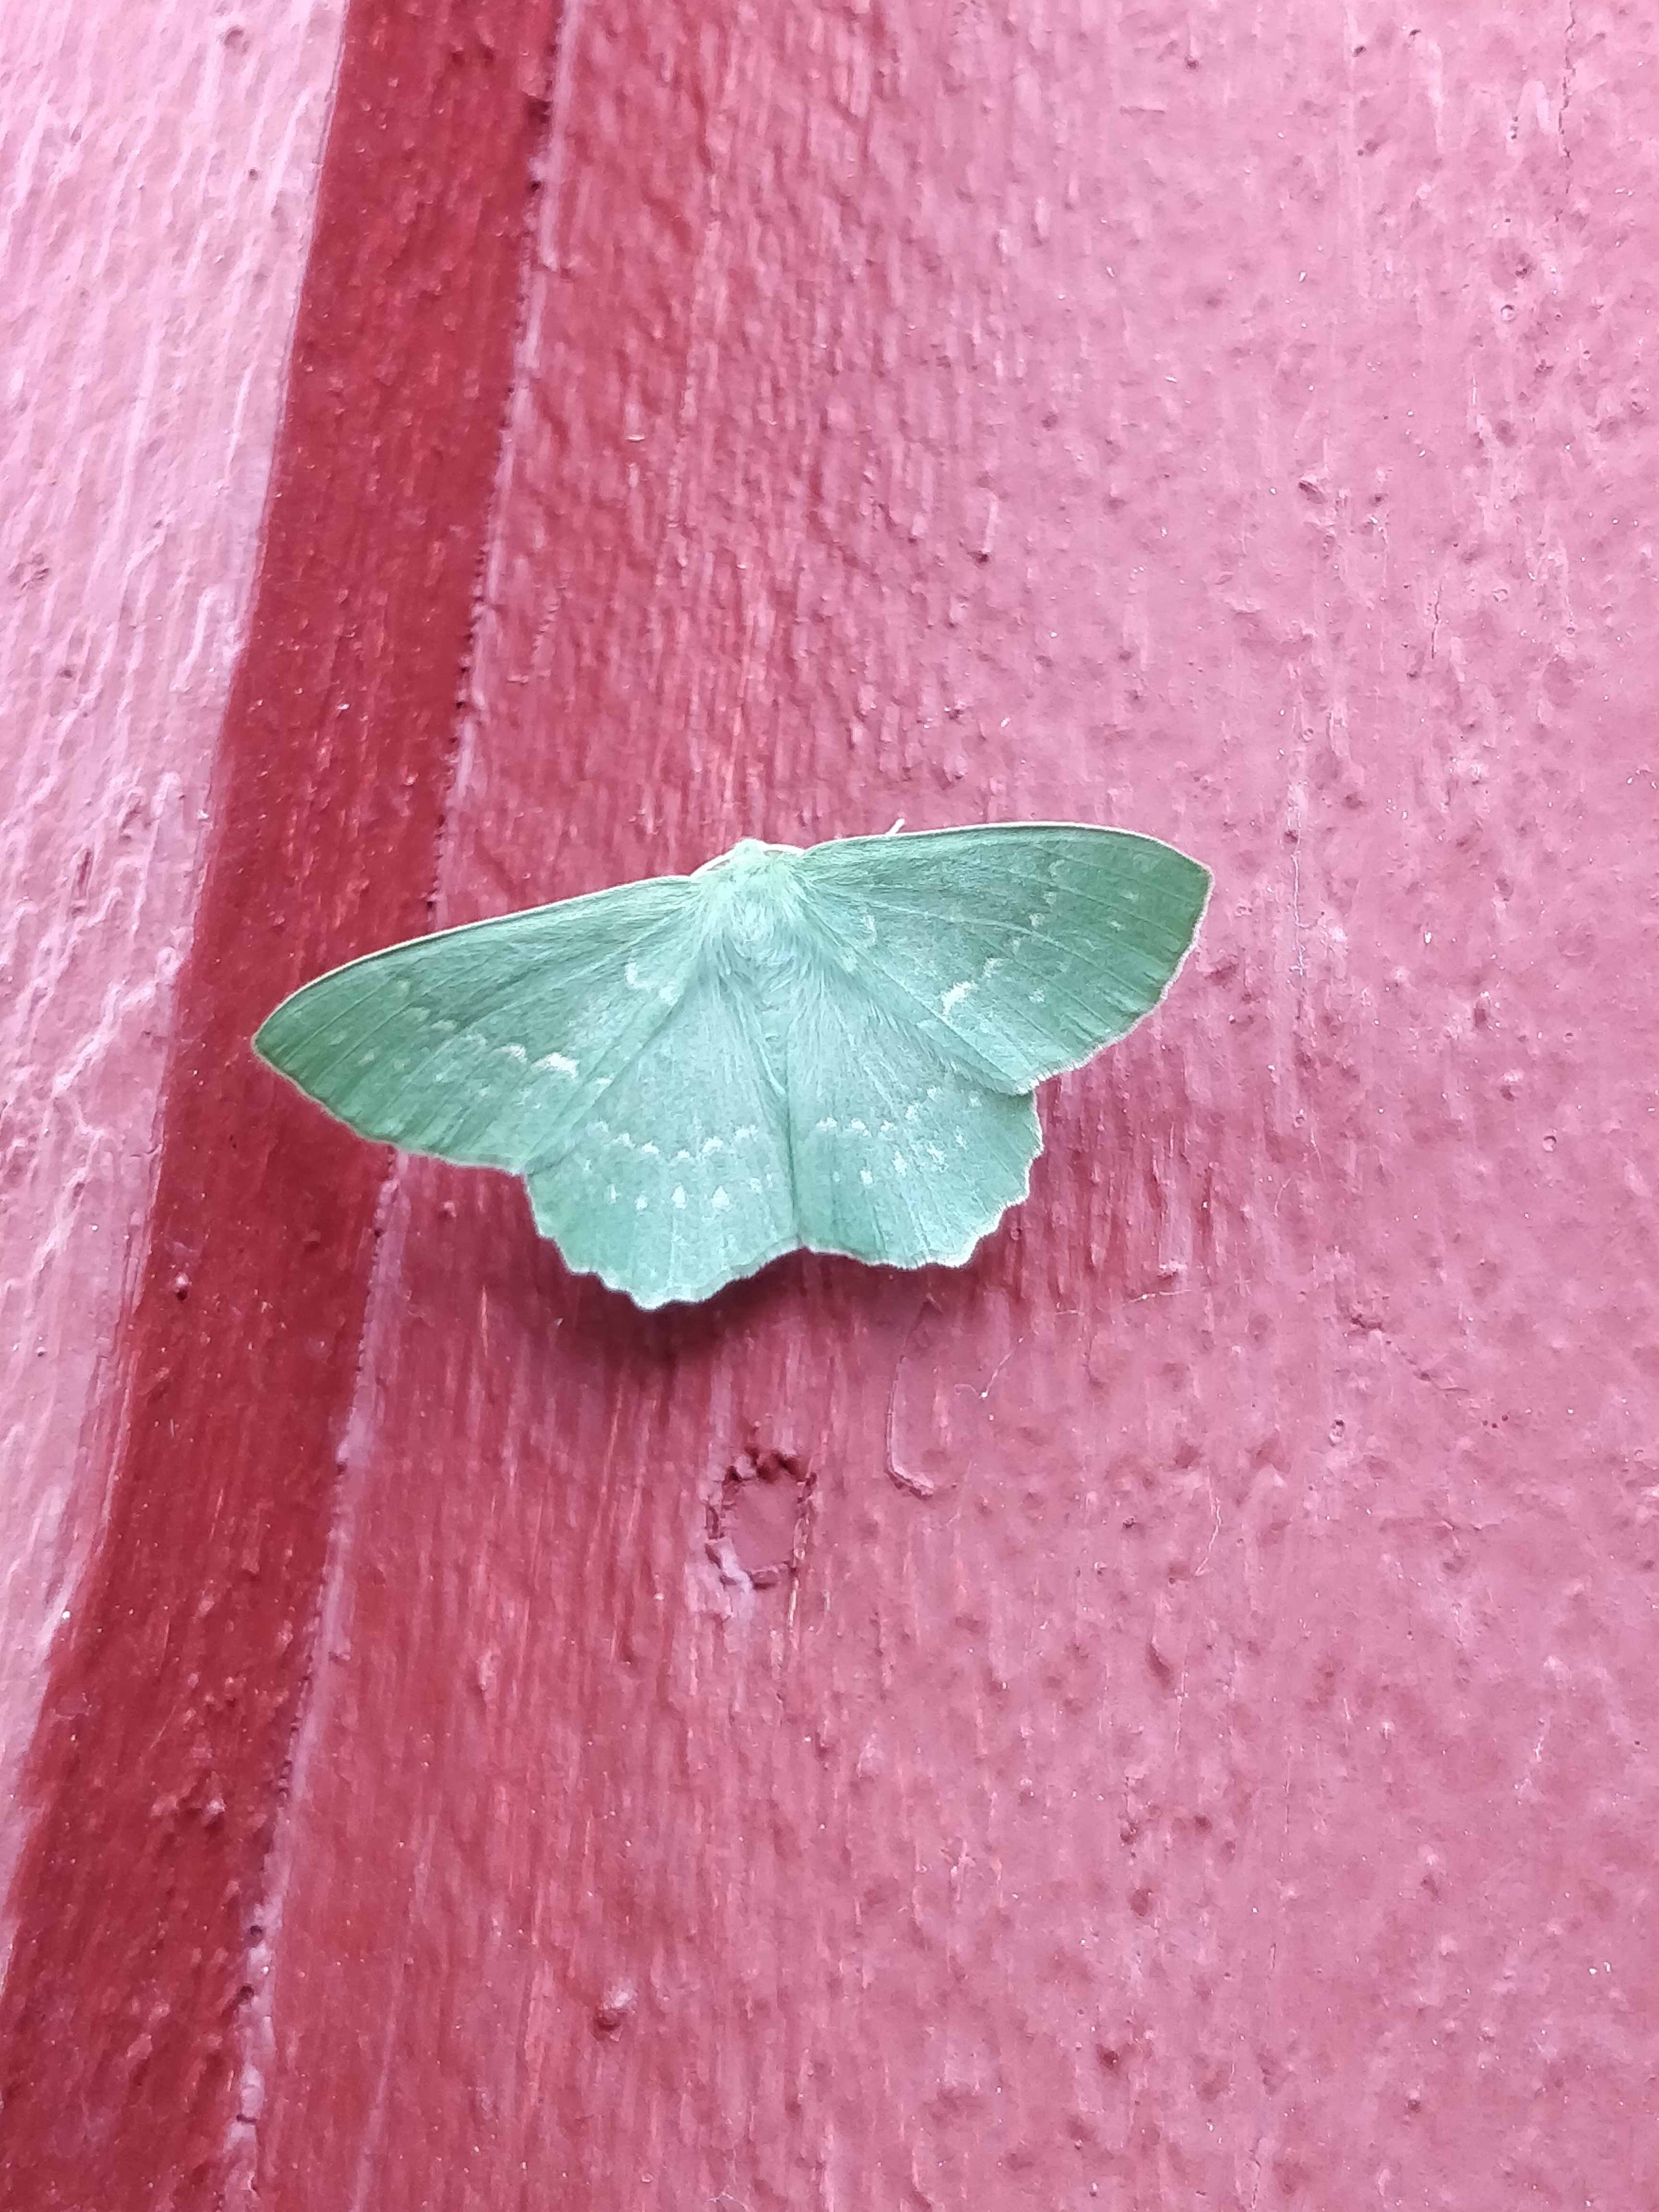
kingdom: Animalia
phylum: Arthropoda
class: Insecta
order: Lepidoptera
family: Geometridae
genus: Geometra
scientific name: Geometra papilionaria
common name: Large emerald
